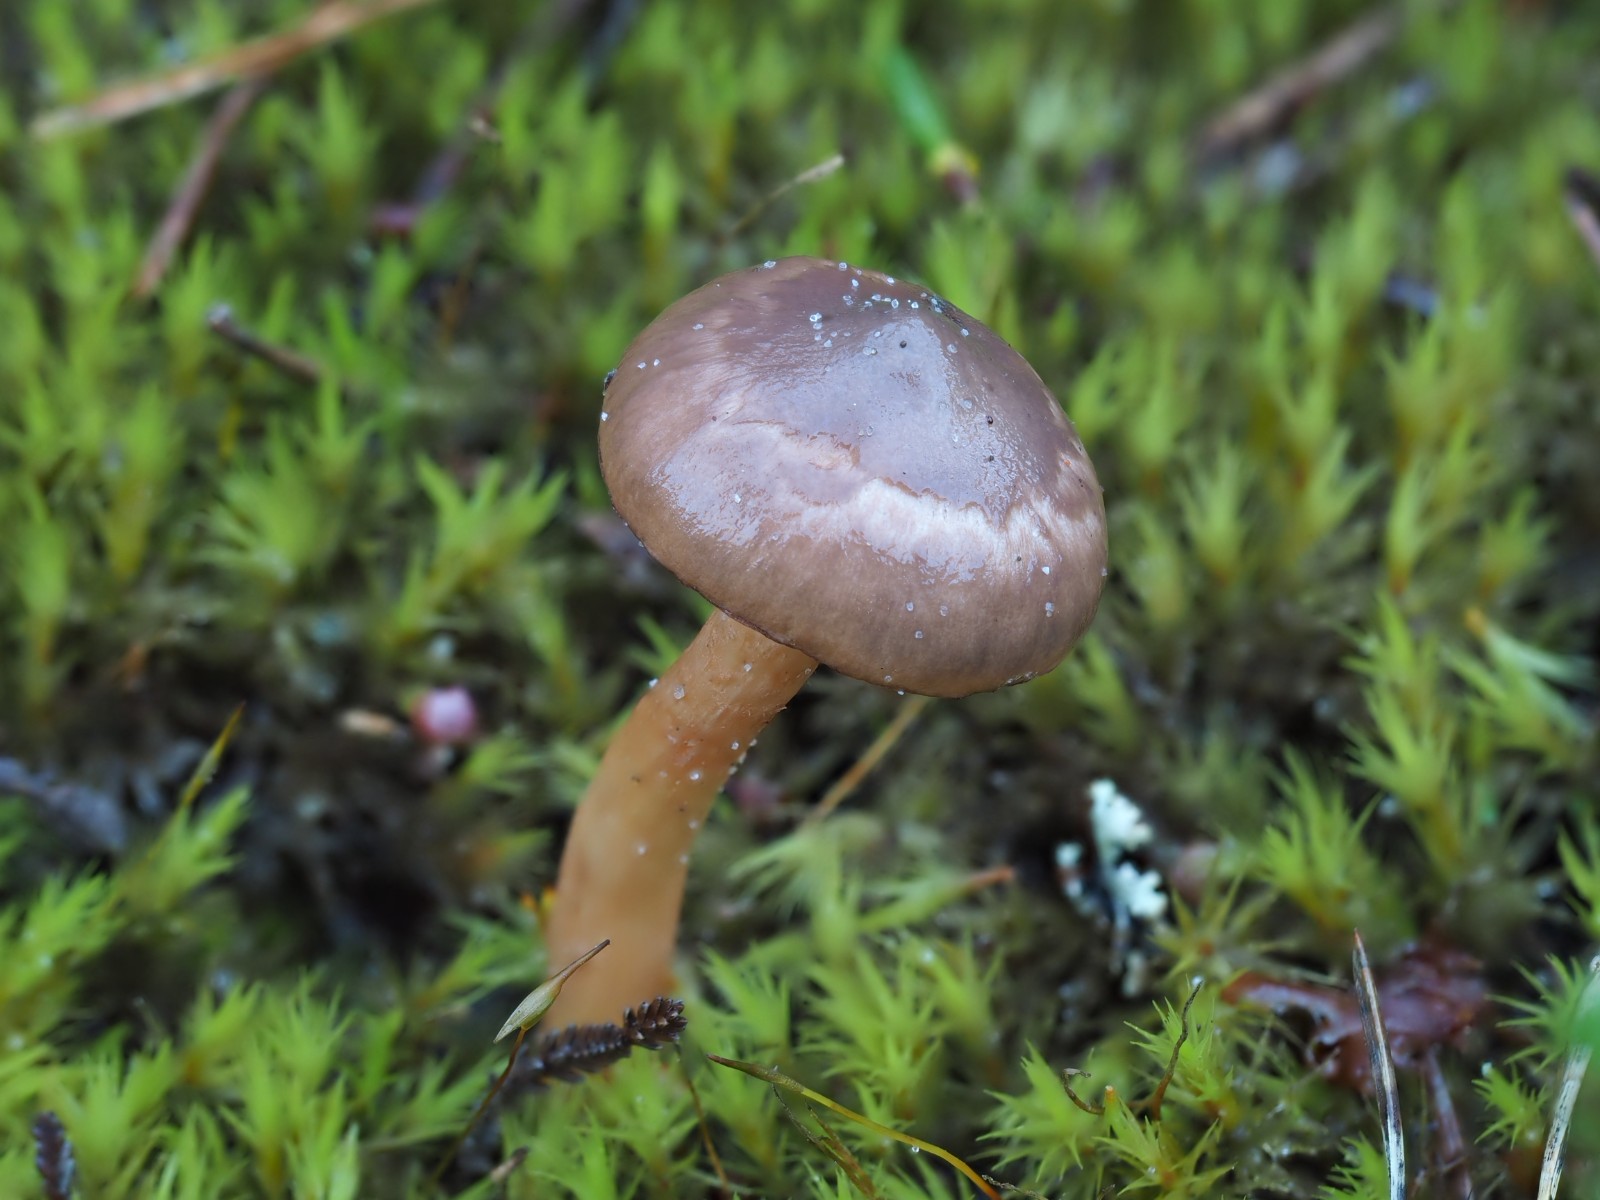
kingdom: Fungi
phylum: Basidiomycota
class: Agaricomycetes
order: Boletales
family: Gomphidiaceae
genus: Chroogomphus
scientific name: Chroogomphus rutilus
